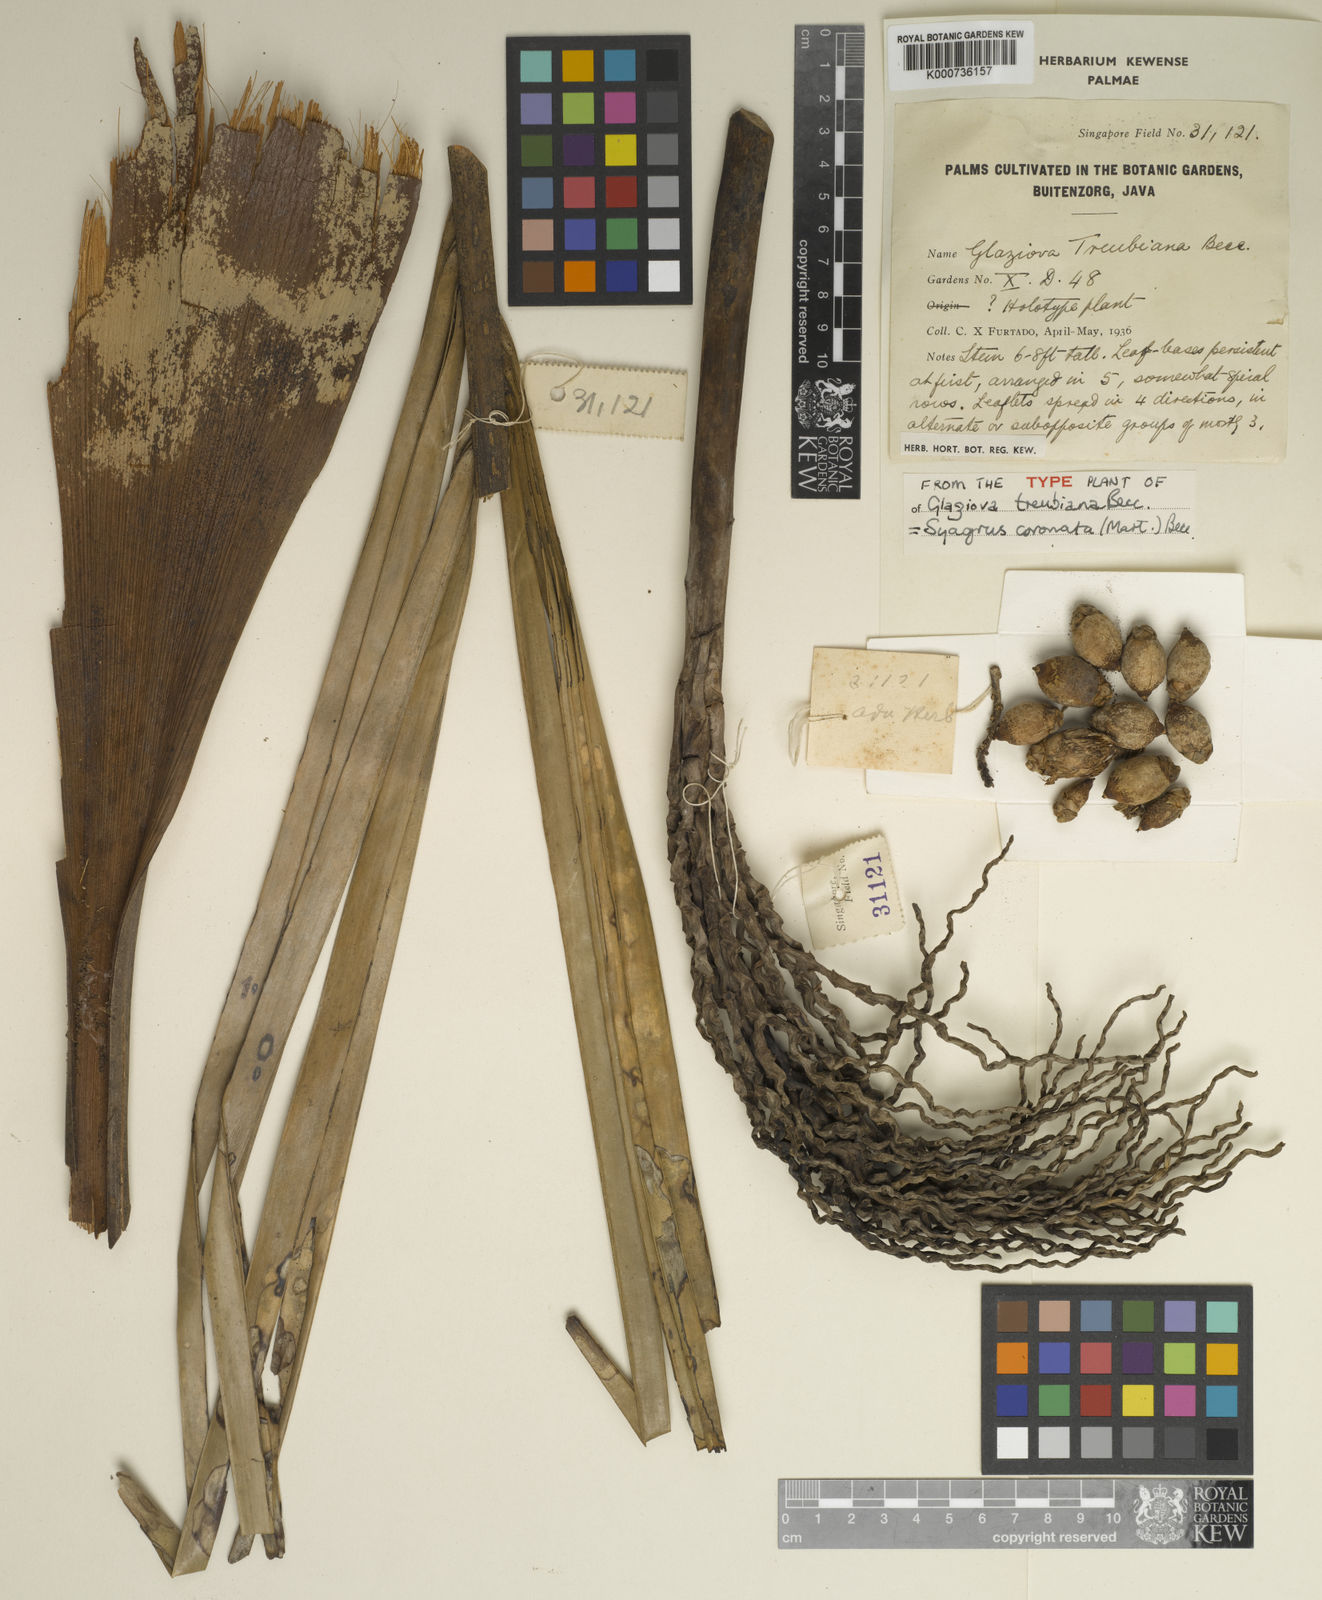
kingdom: Plantae
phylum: Tracheophyta
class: Liliopsida
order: Arecales
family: Arecaceae
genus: Syagrus
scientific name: Syagrus coronata
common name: Licuri palm
